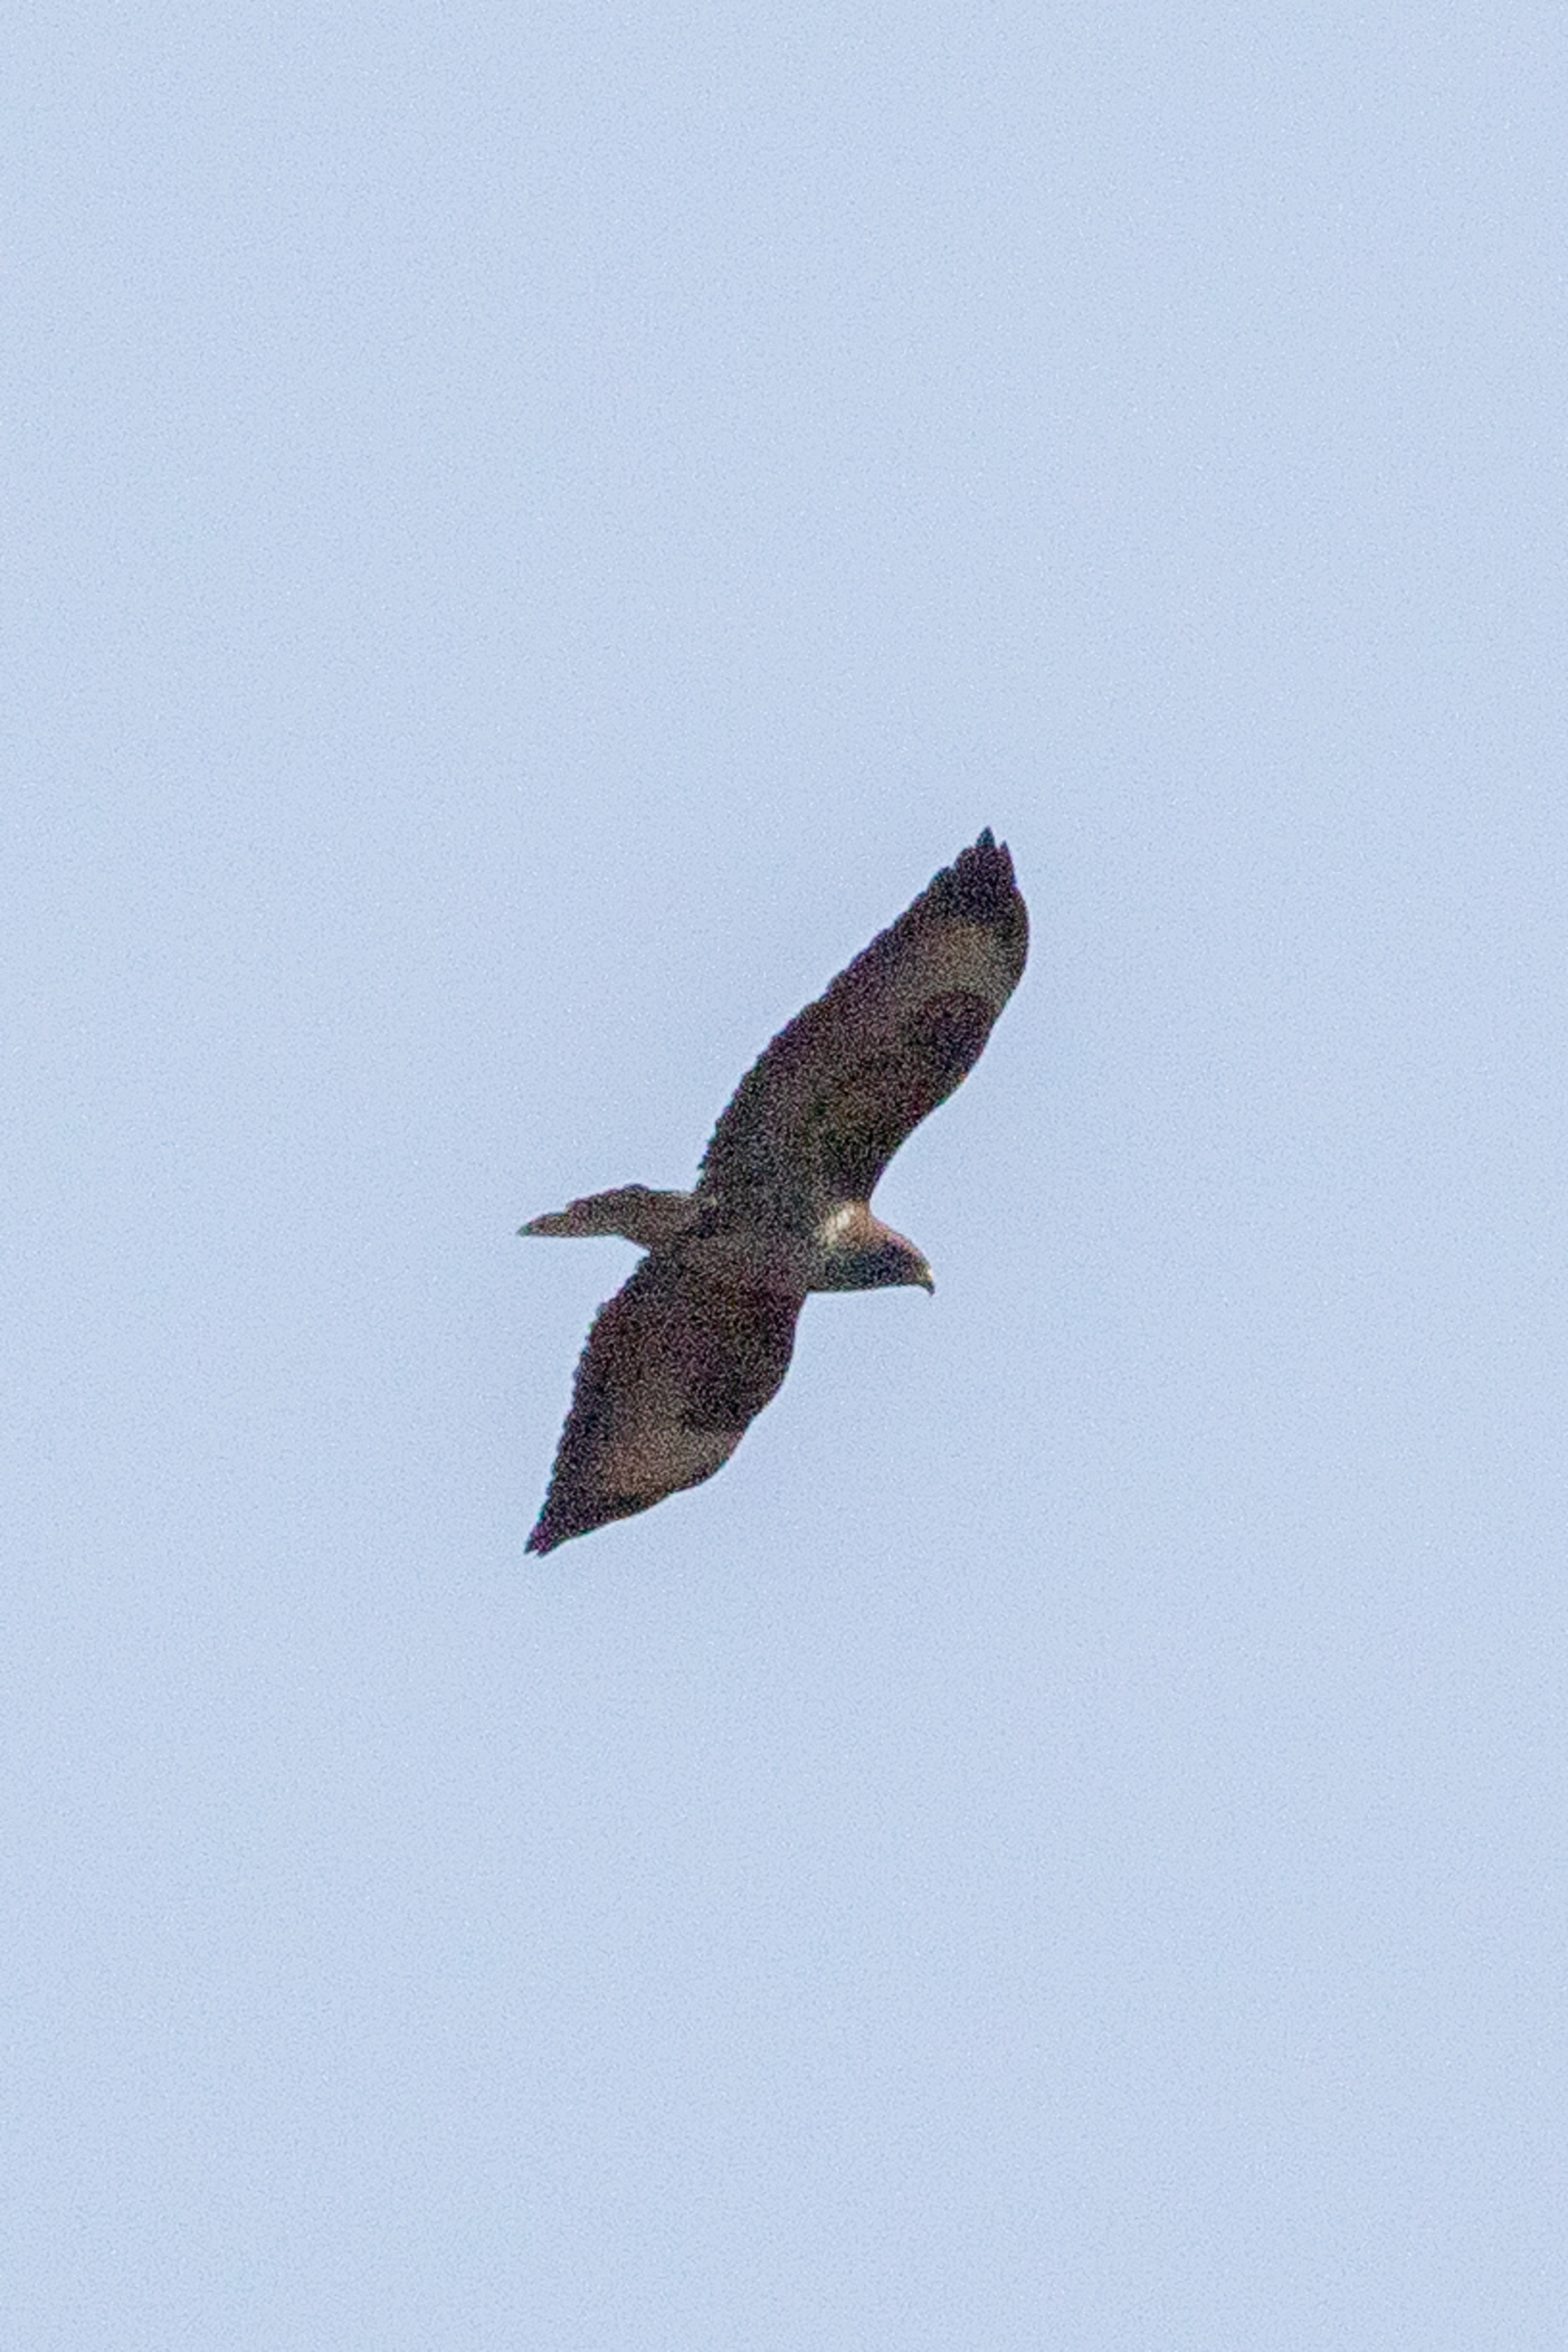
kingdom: Animalia
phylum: Chordata
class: Aves
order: Accipitriformes
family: Accipitridae
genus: Buteo
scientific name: Buteo buteo
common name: Musvåge
